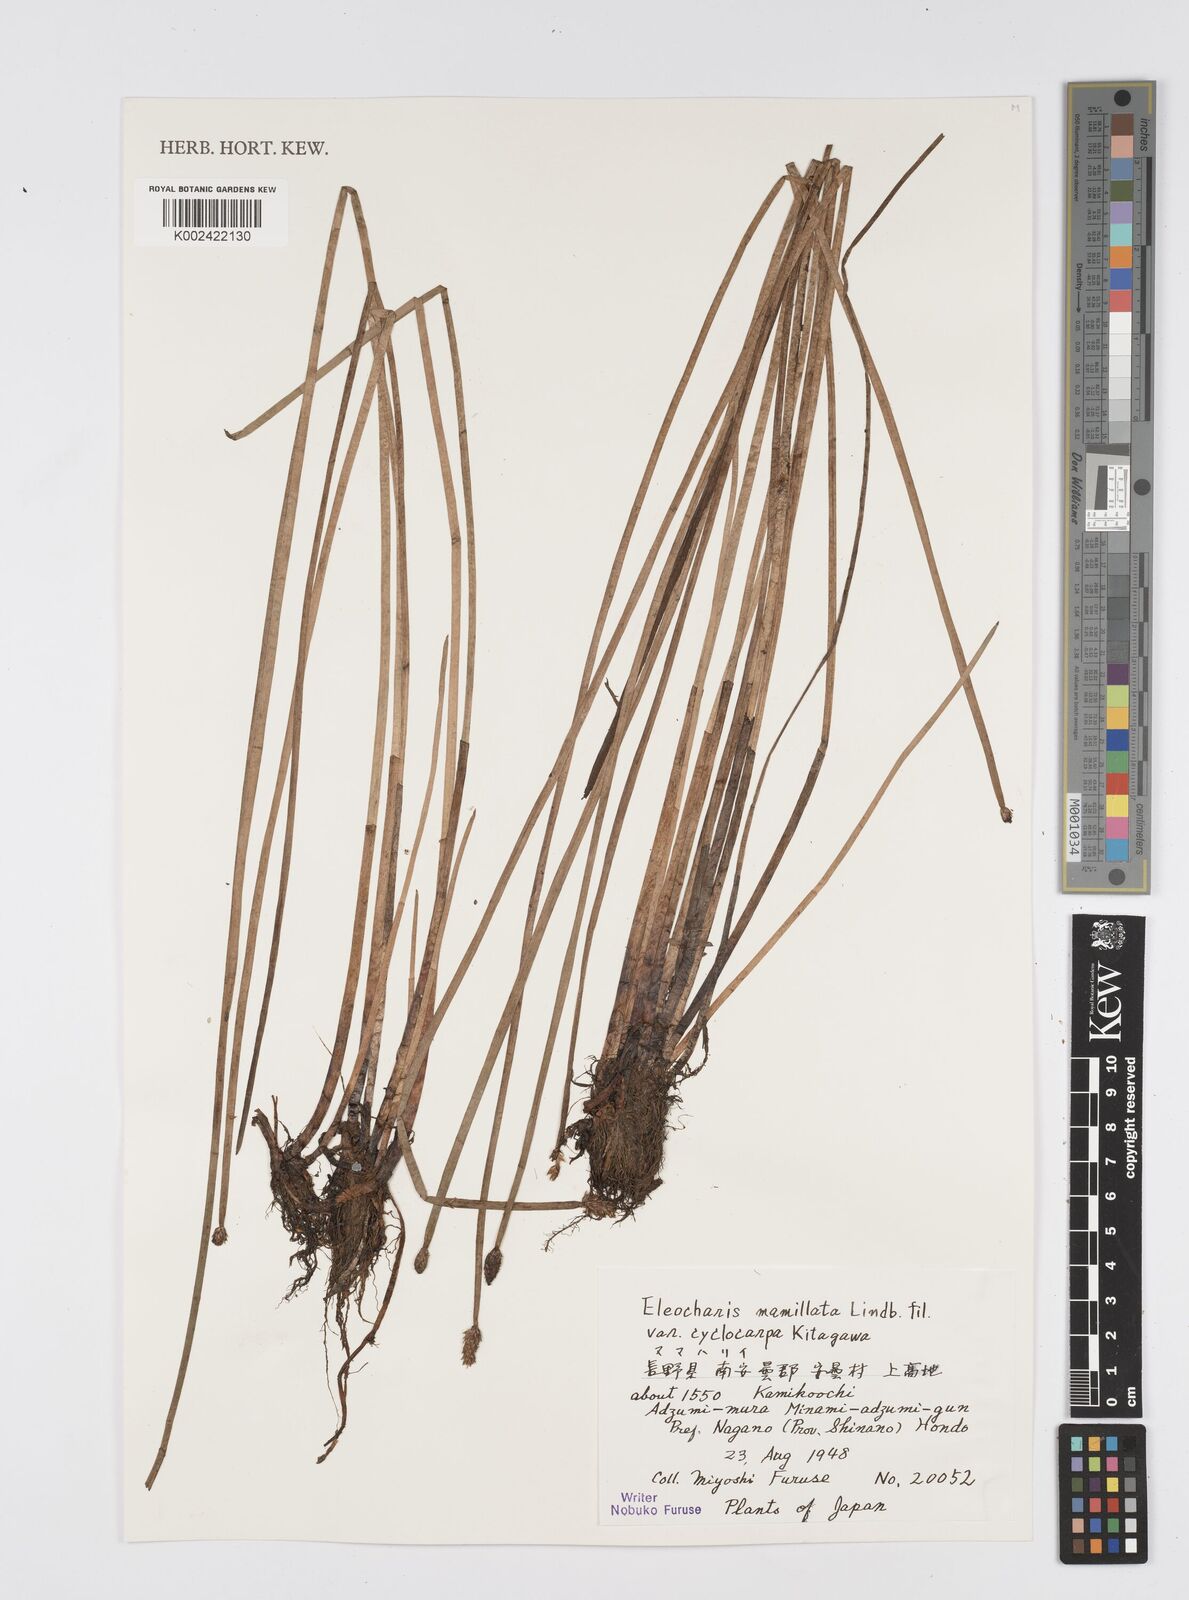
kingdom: Plantae
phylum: Tracheophyta
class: Liliopsida
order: Poales
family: Cyperaceae
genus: Eleocharis
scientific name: Eleocharis mamillata
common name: Northern spike-rush
